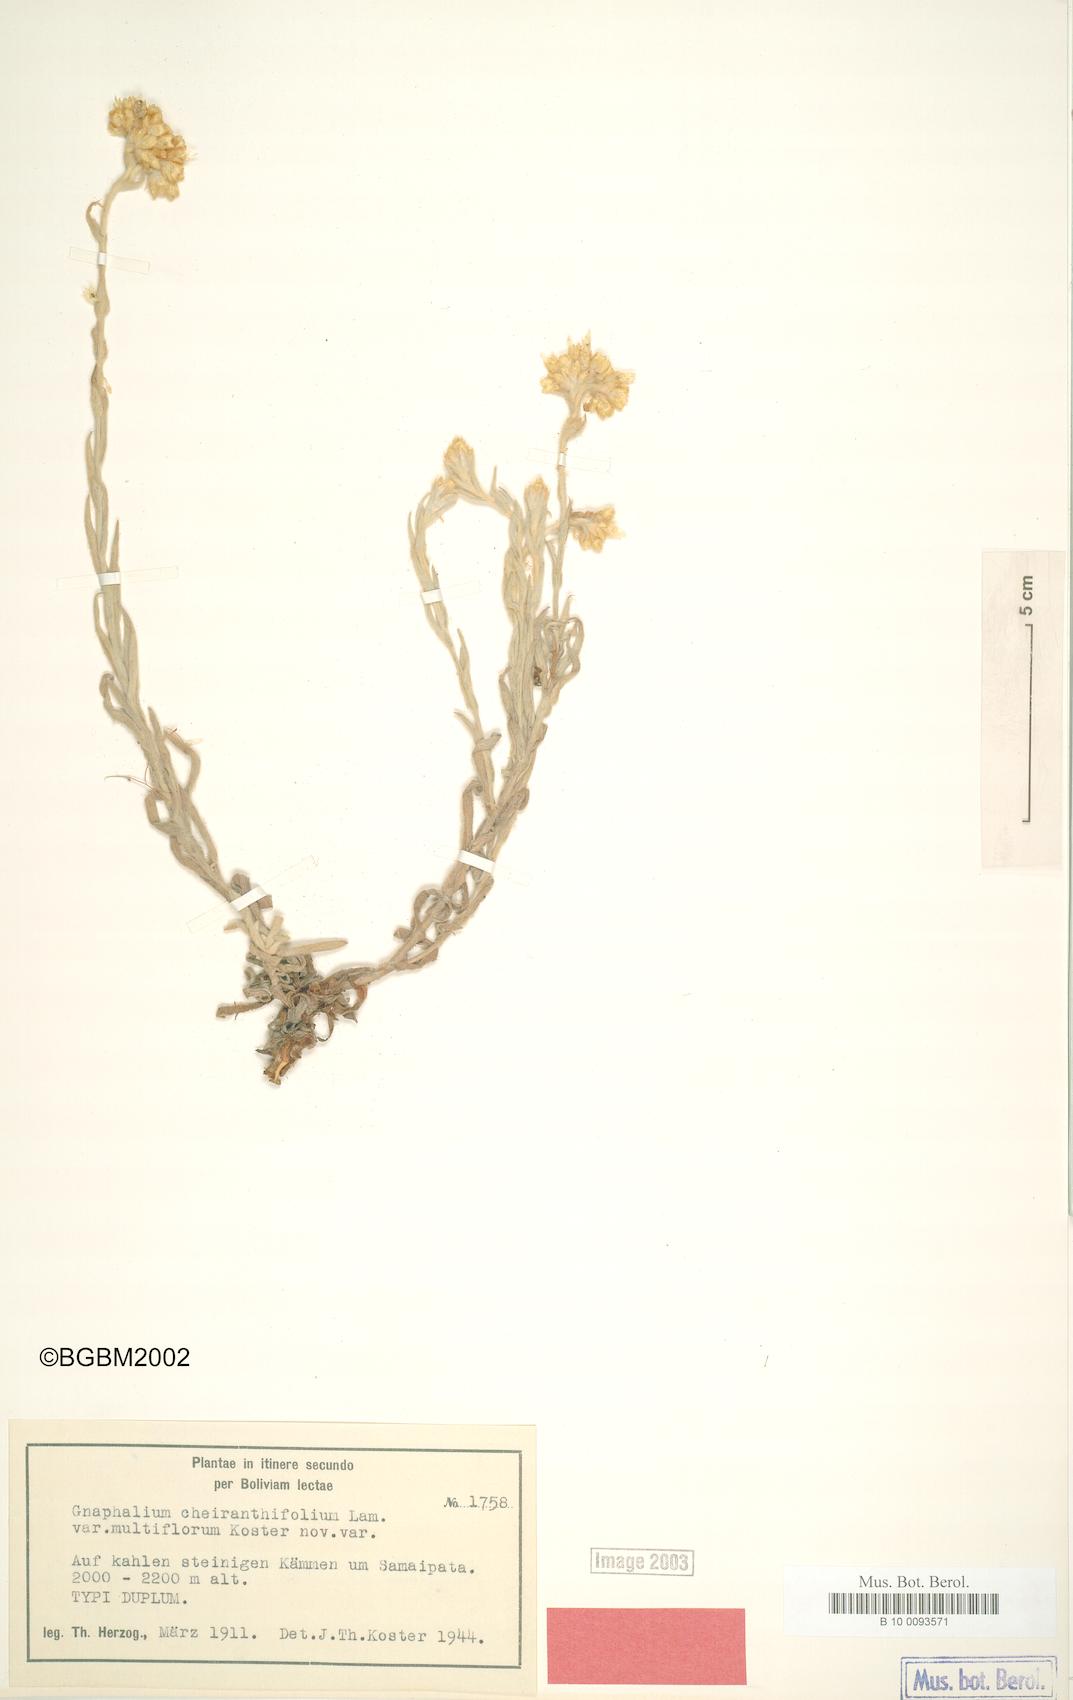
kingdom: Plantae
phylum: Tracheophyta
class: Magnoliopsida
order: Asterales
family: Asteraceae
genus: Pseudognaphalium
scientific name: Pseudognaphalium cheiranthifolium
